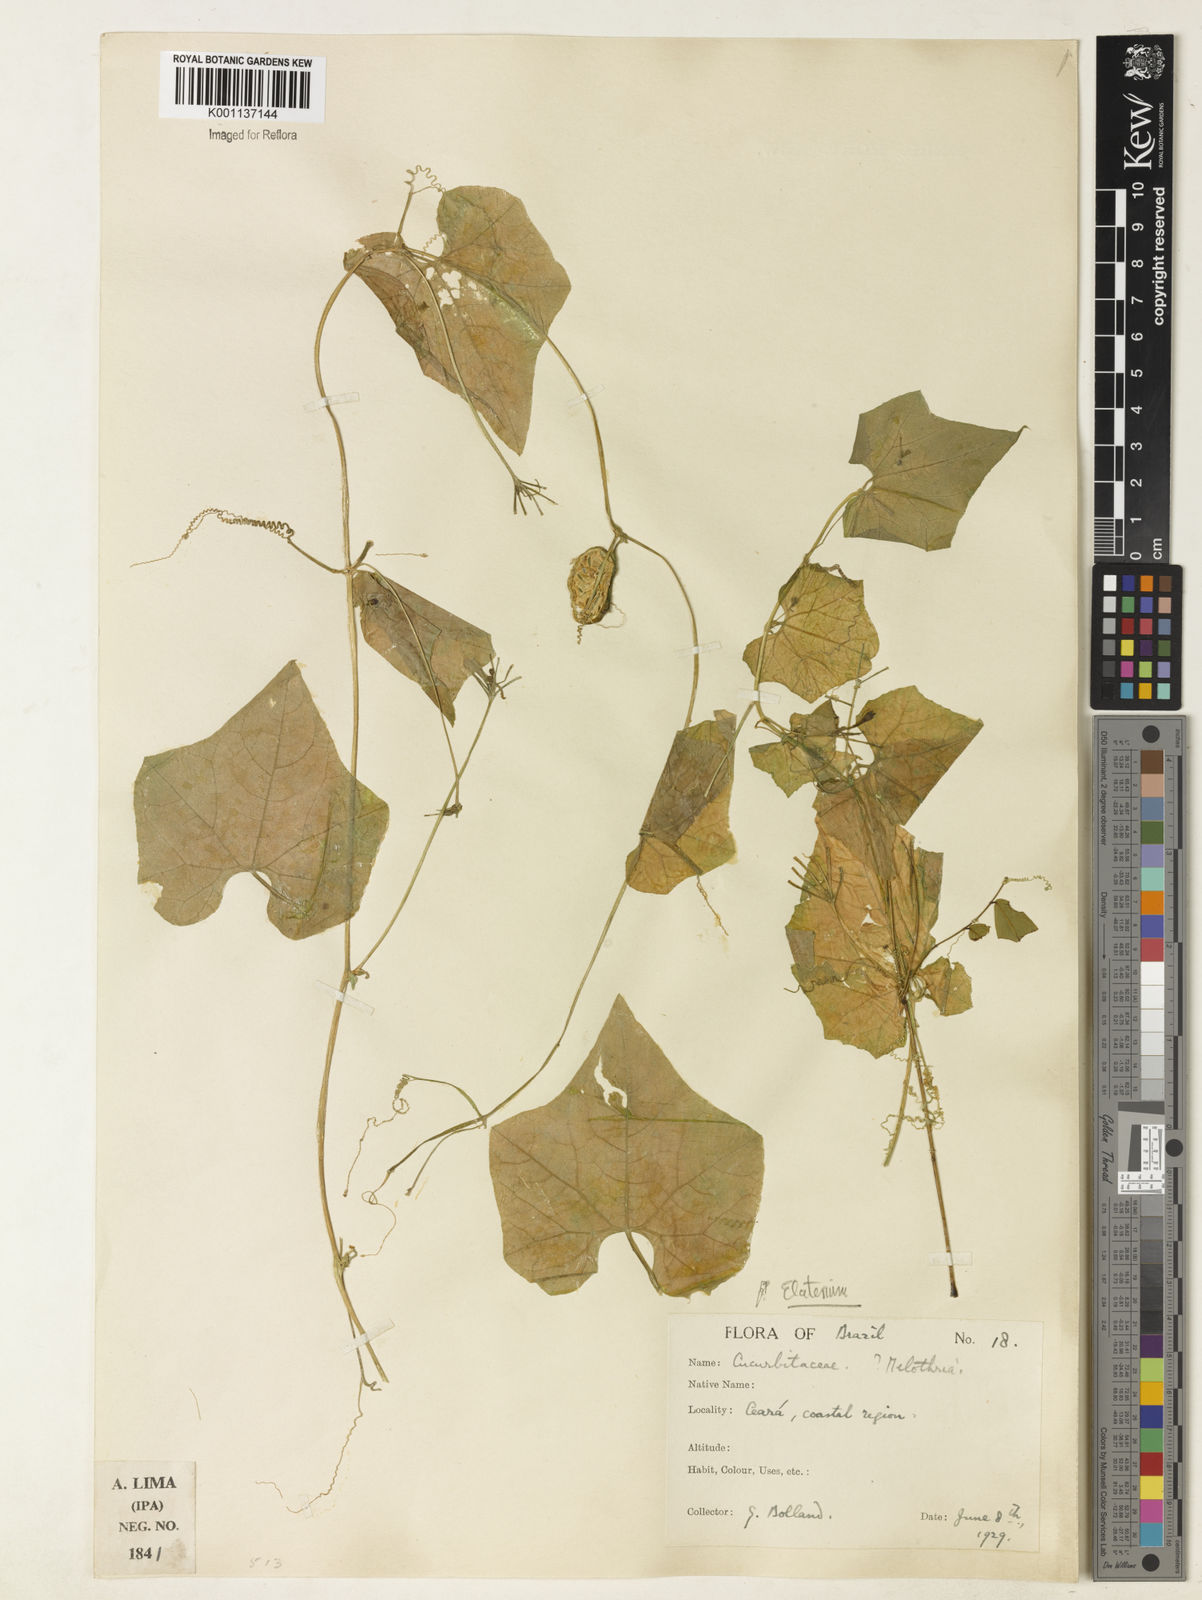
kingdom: Plantae
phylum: Tracheophyta
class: Magnoliopsida
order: Cucurbitales
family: Cucurbitaceae
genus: Cyclanthera
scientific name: Cyclanthera carthagenensis
